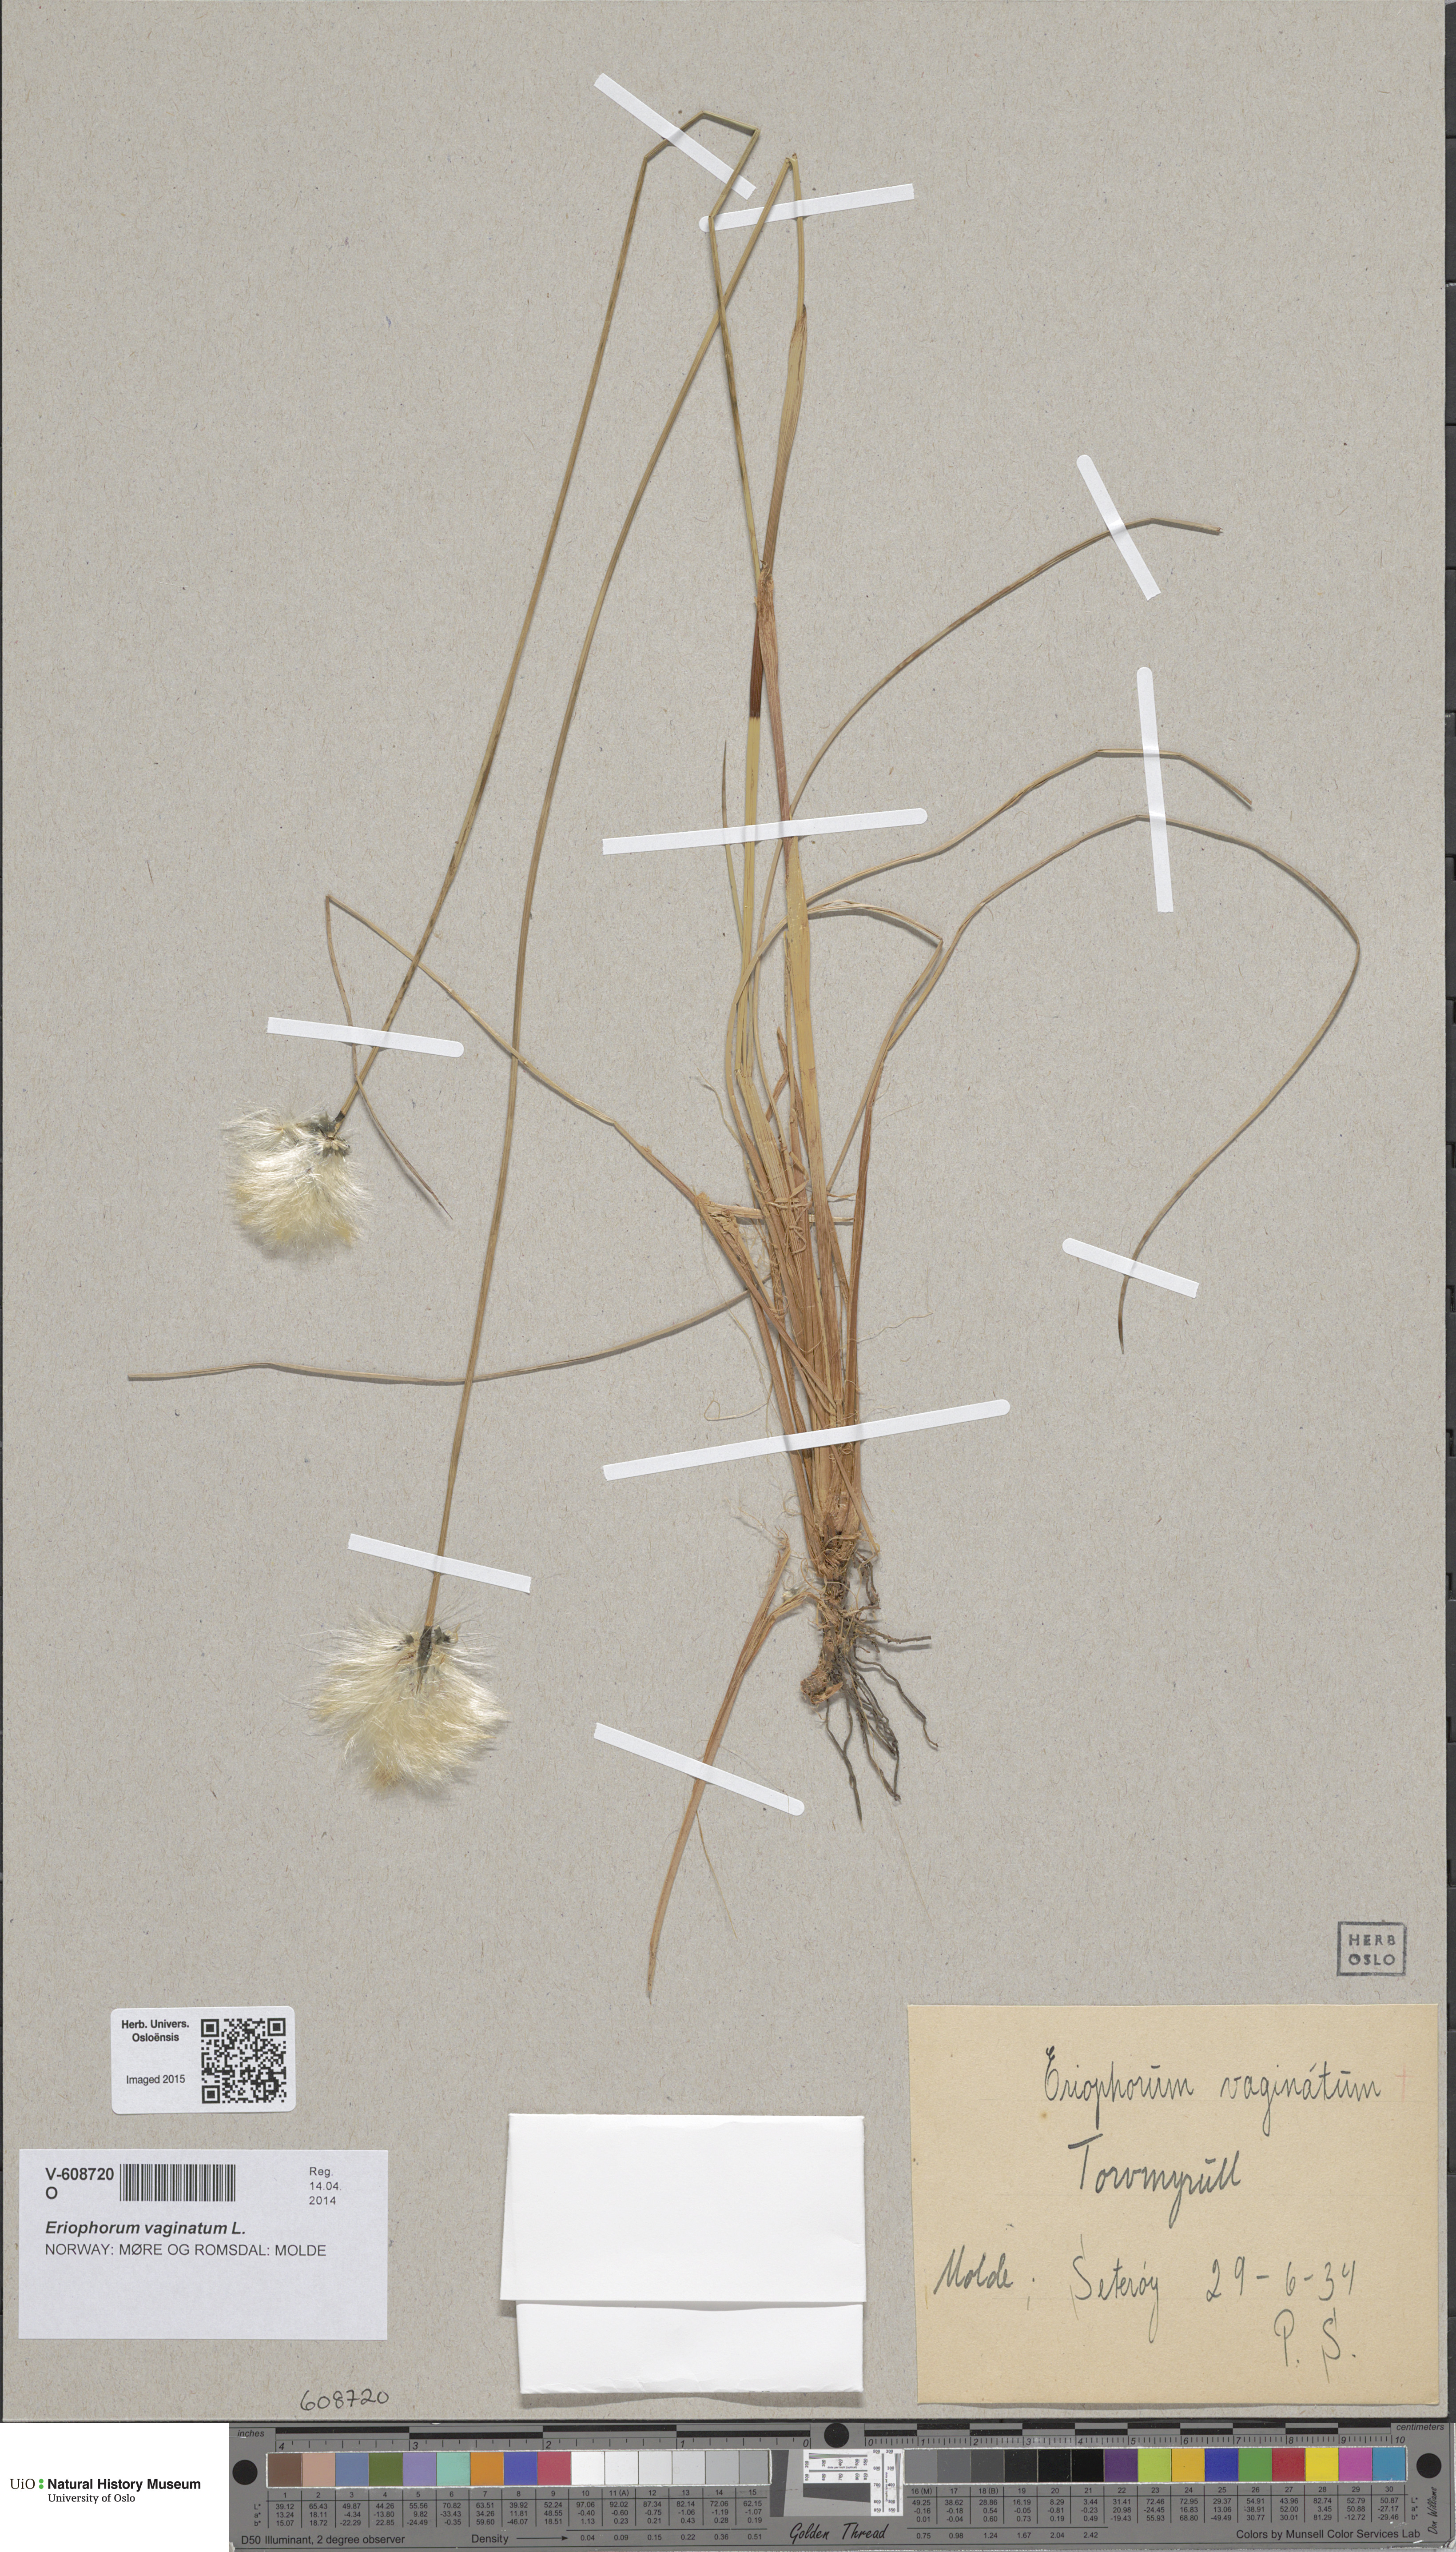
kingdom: Plantae
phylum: Tracheophyta
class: Liliopsida
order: Poales
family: Cyperaceae
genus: Eriophorum
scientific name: Eriophorum vaginatum
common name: Hare's-tail cottongrass
